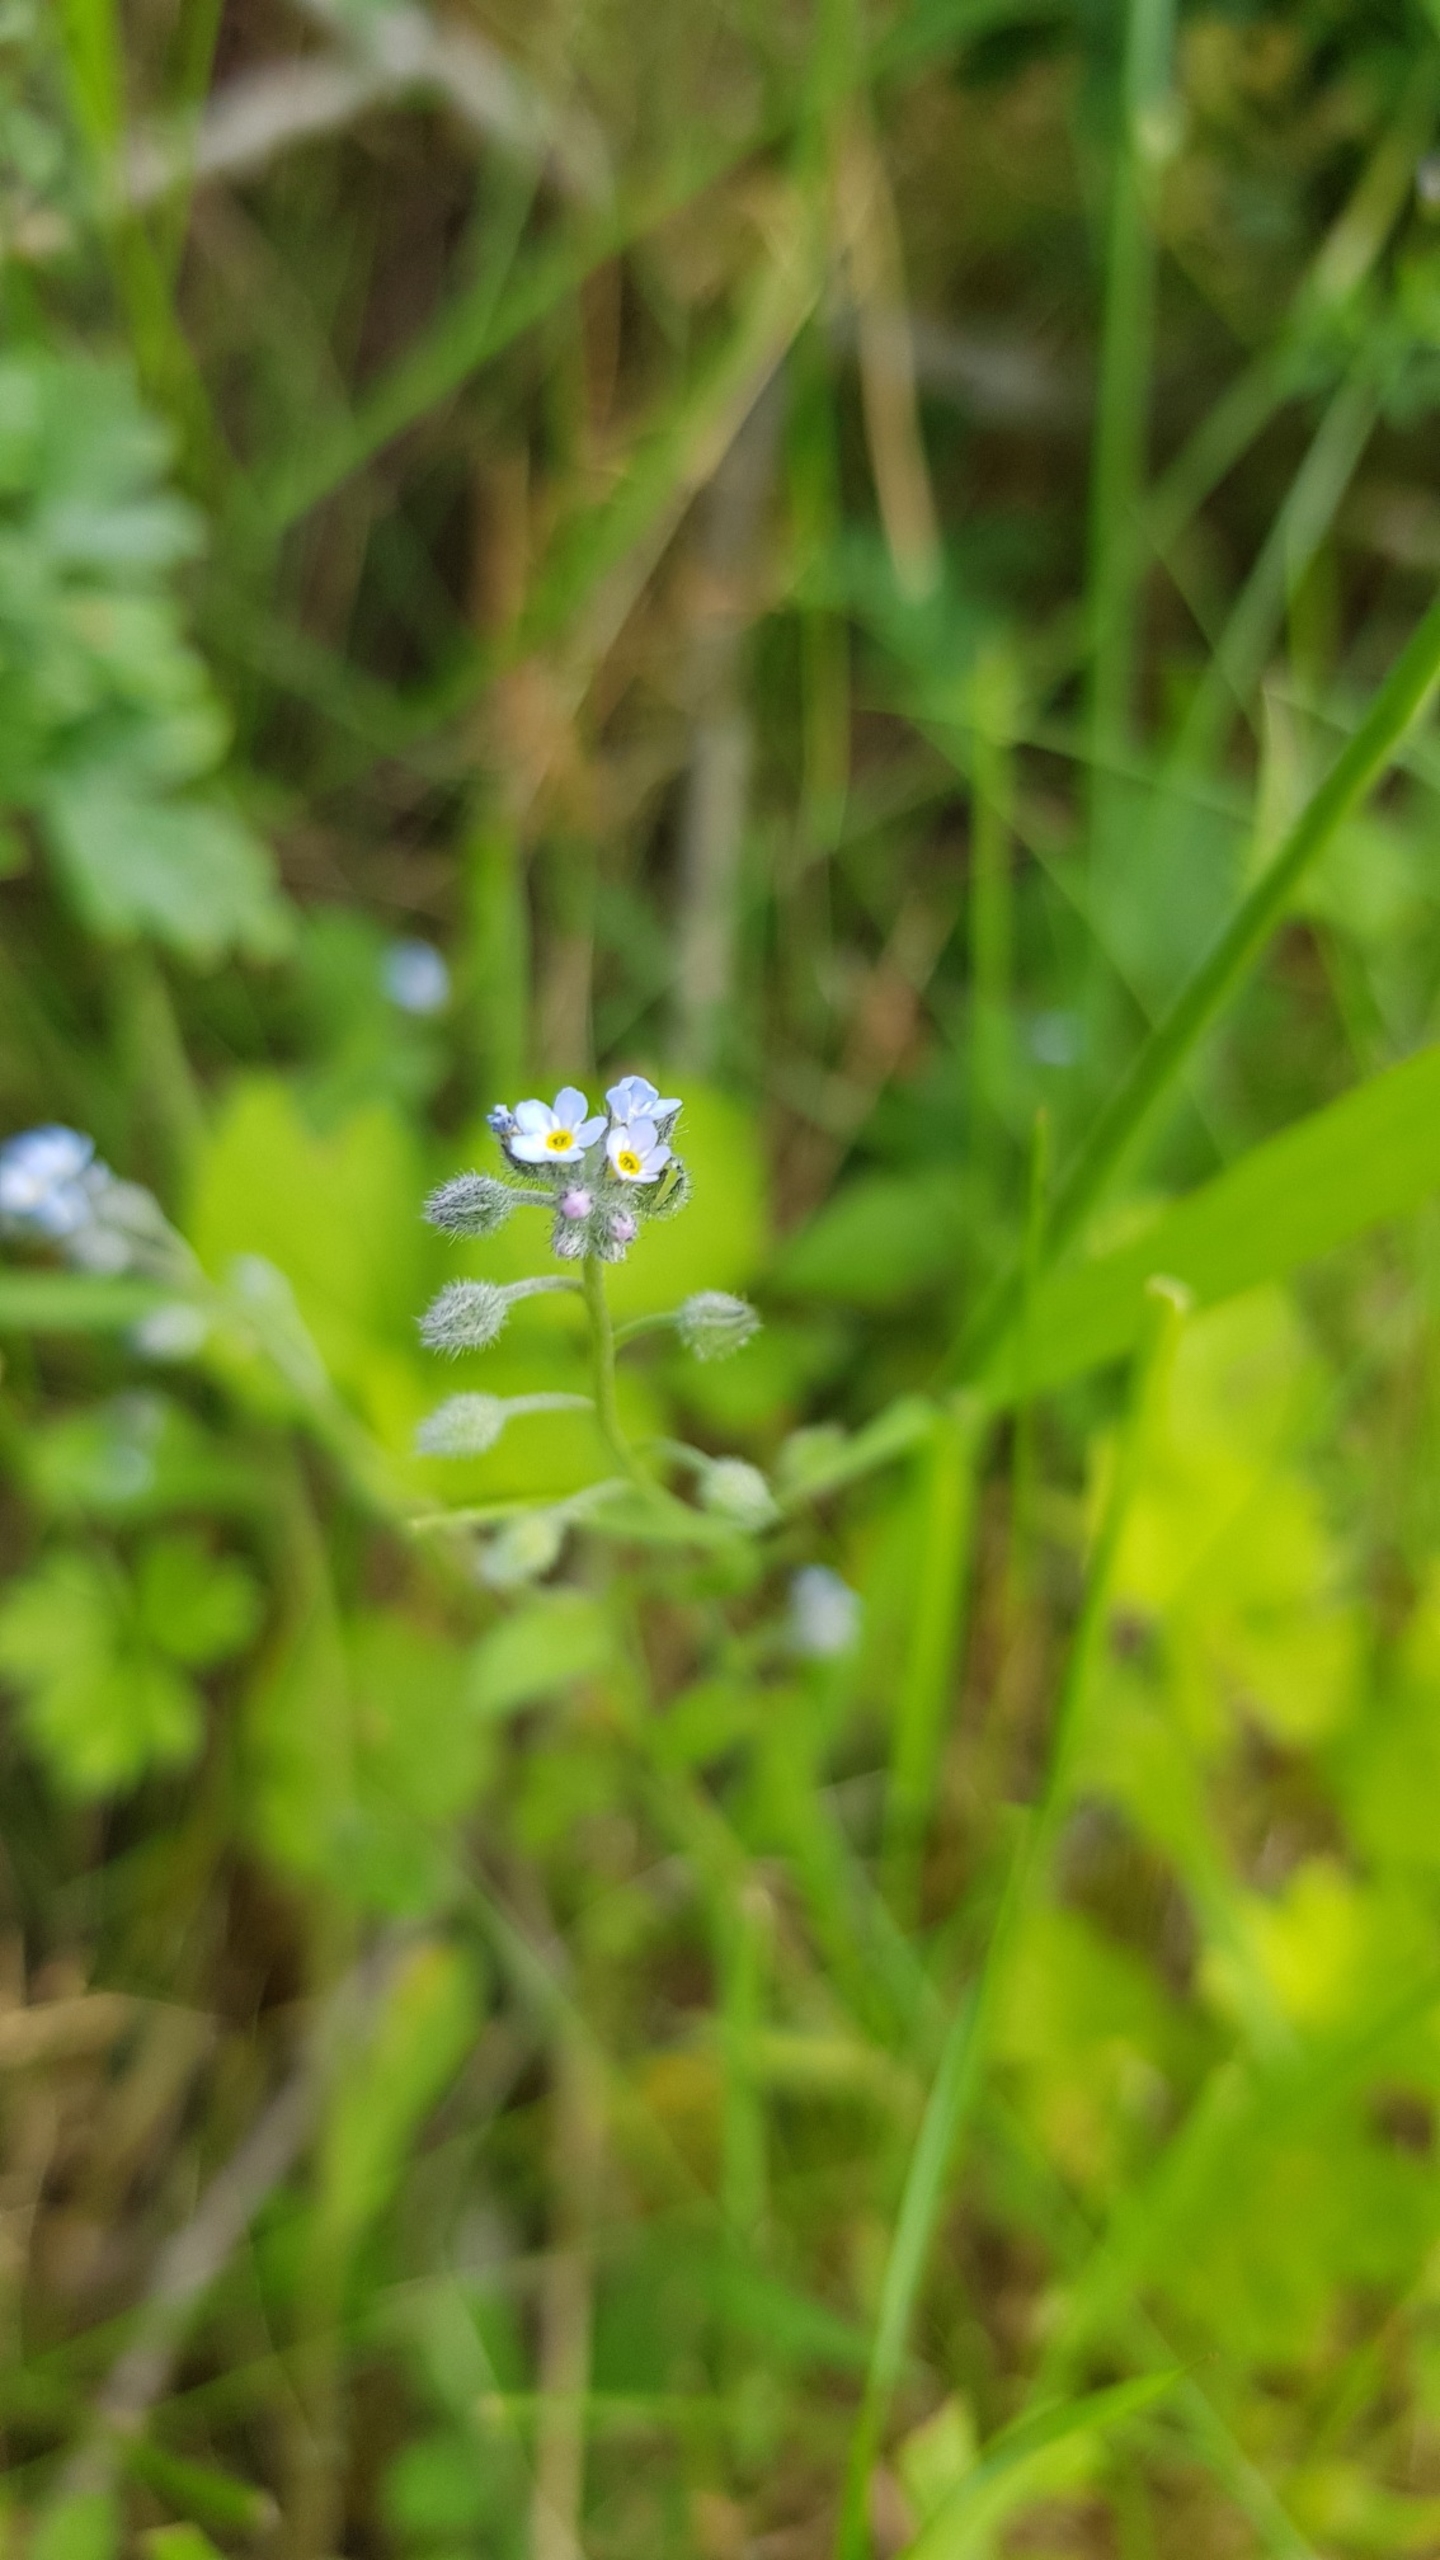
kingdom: Plantae
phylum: Tracheophyta
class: Magnoliopsida
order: Boraginales
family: Boraginaceae
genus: Myosotis
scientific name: Myosotis arvensis
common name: Mark-forglemmigej
